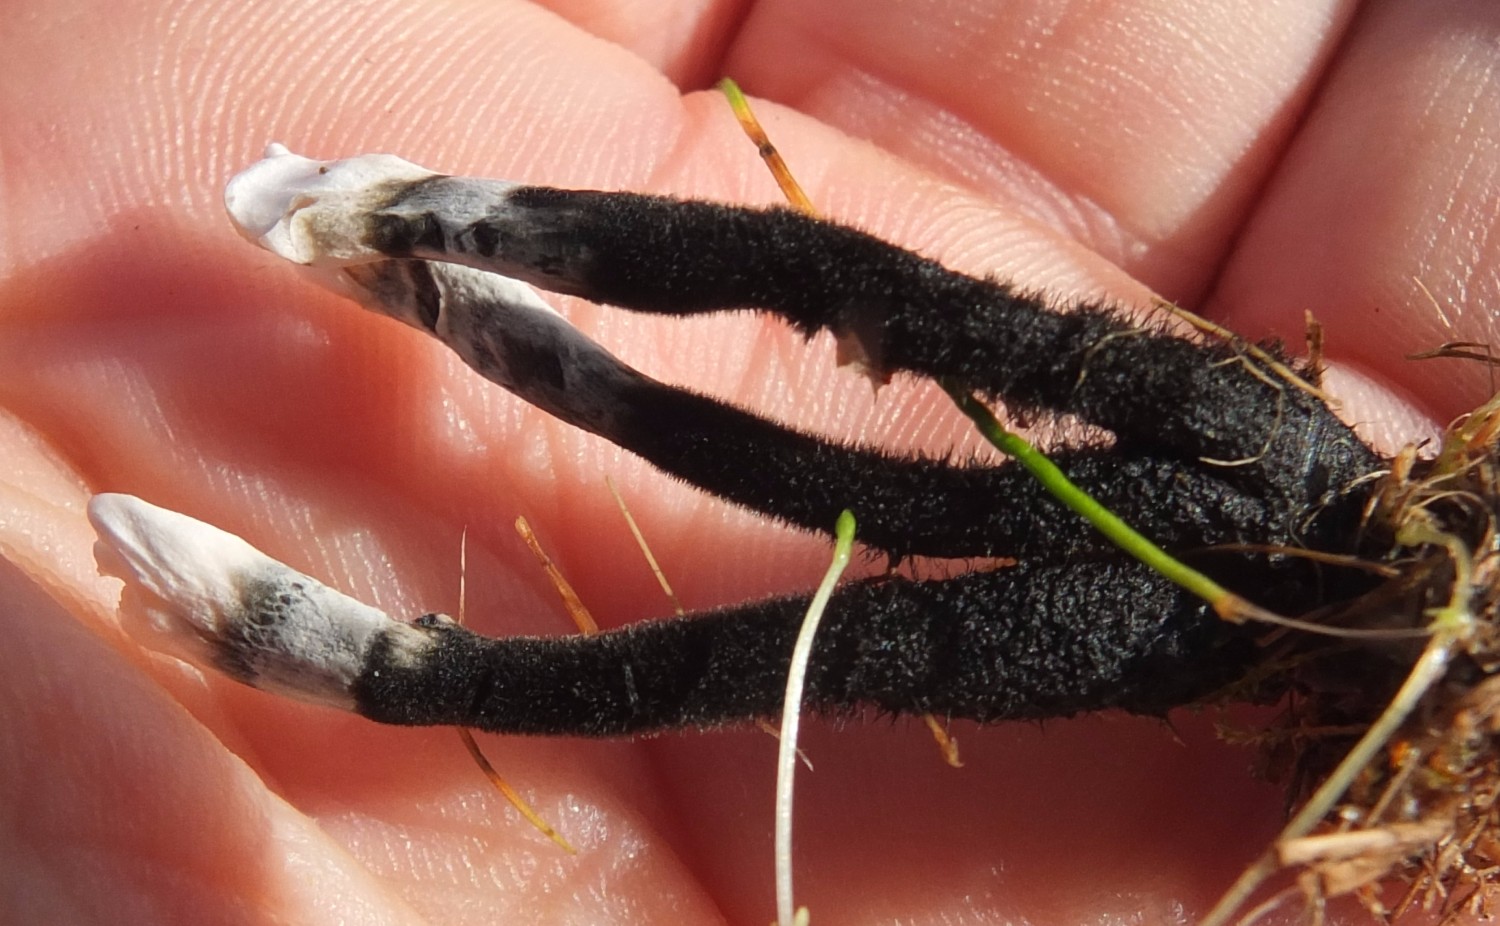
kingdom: Fungi
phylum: Ascomycota
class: Sordariomycetes
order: Xylariales
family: Xylariaceae
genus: Xylaria
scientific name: Xylaria hypoxylon
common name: grenet stødsvamp
